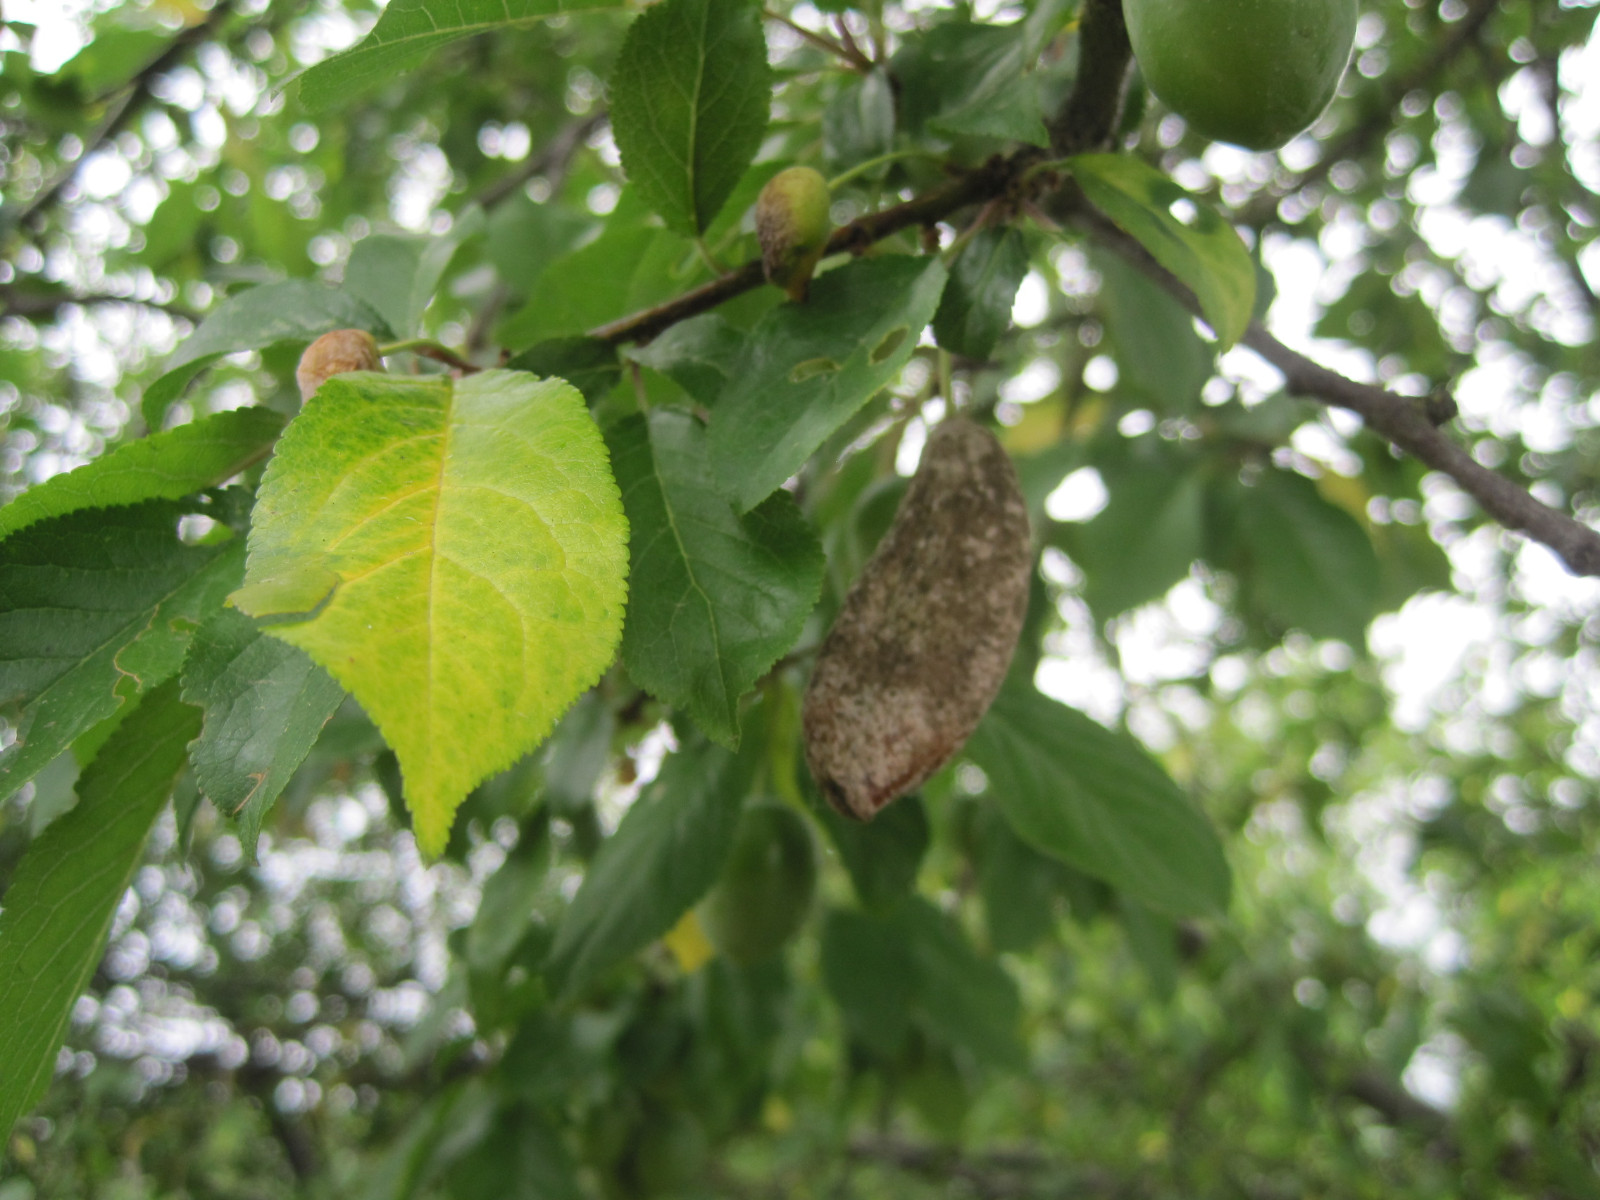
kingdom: Fungi
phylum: Ascomycota
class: Taphrinomycetes
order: Taphrinales
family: Taphrinaceae
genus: Taphrina
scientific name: Taphrina pruni
